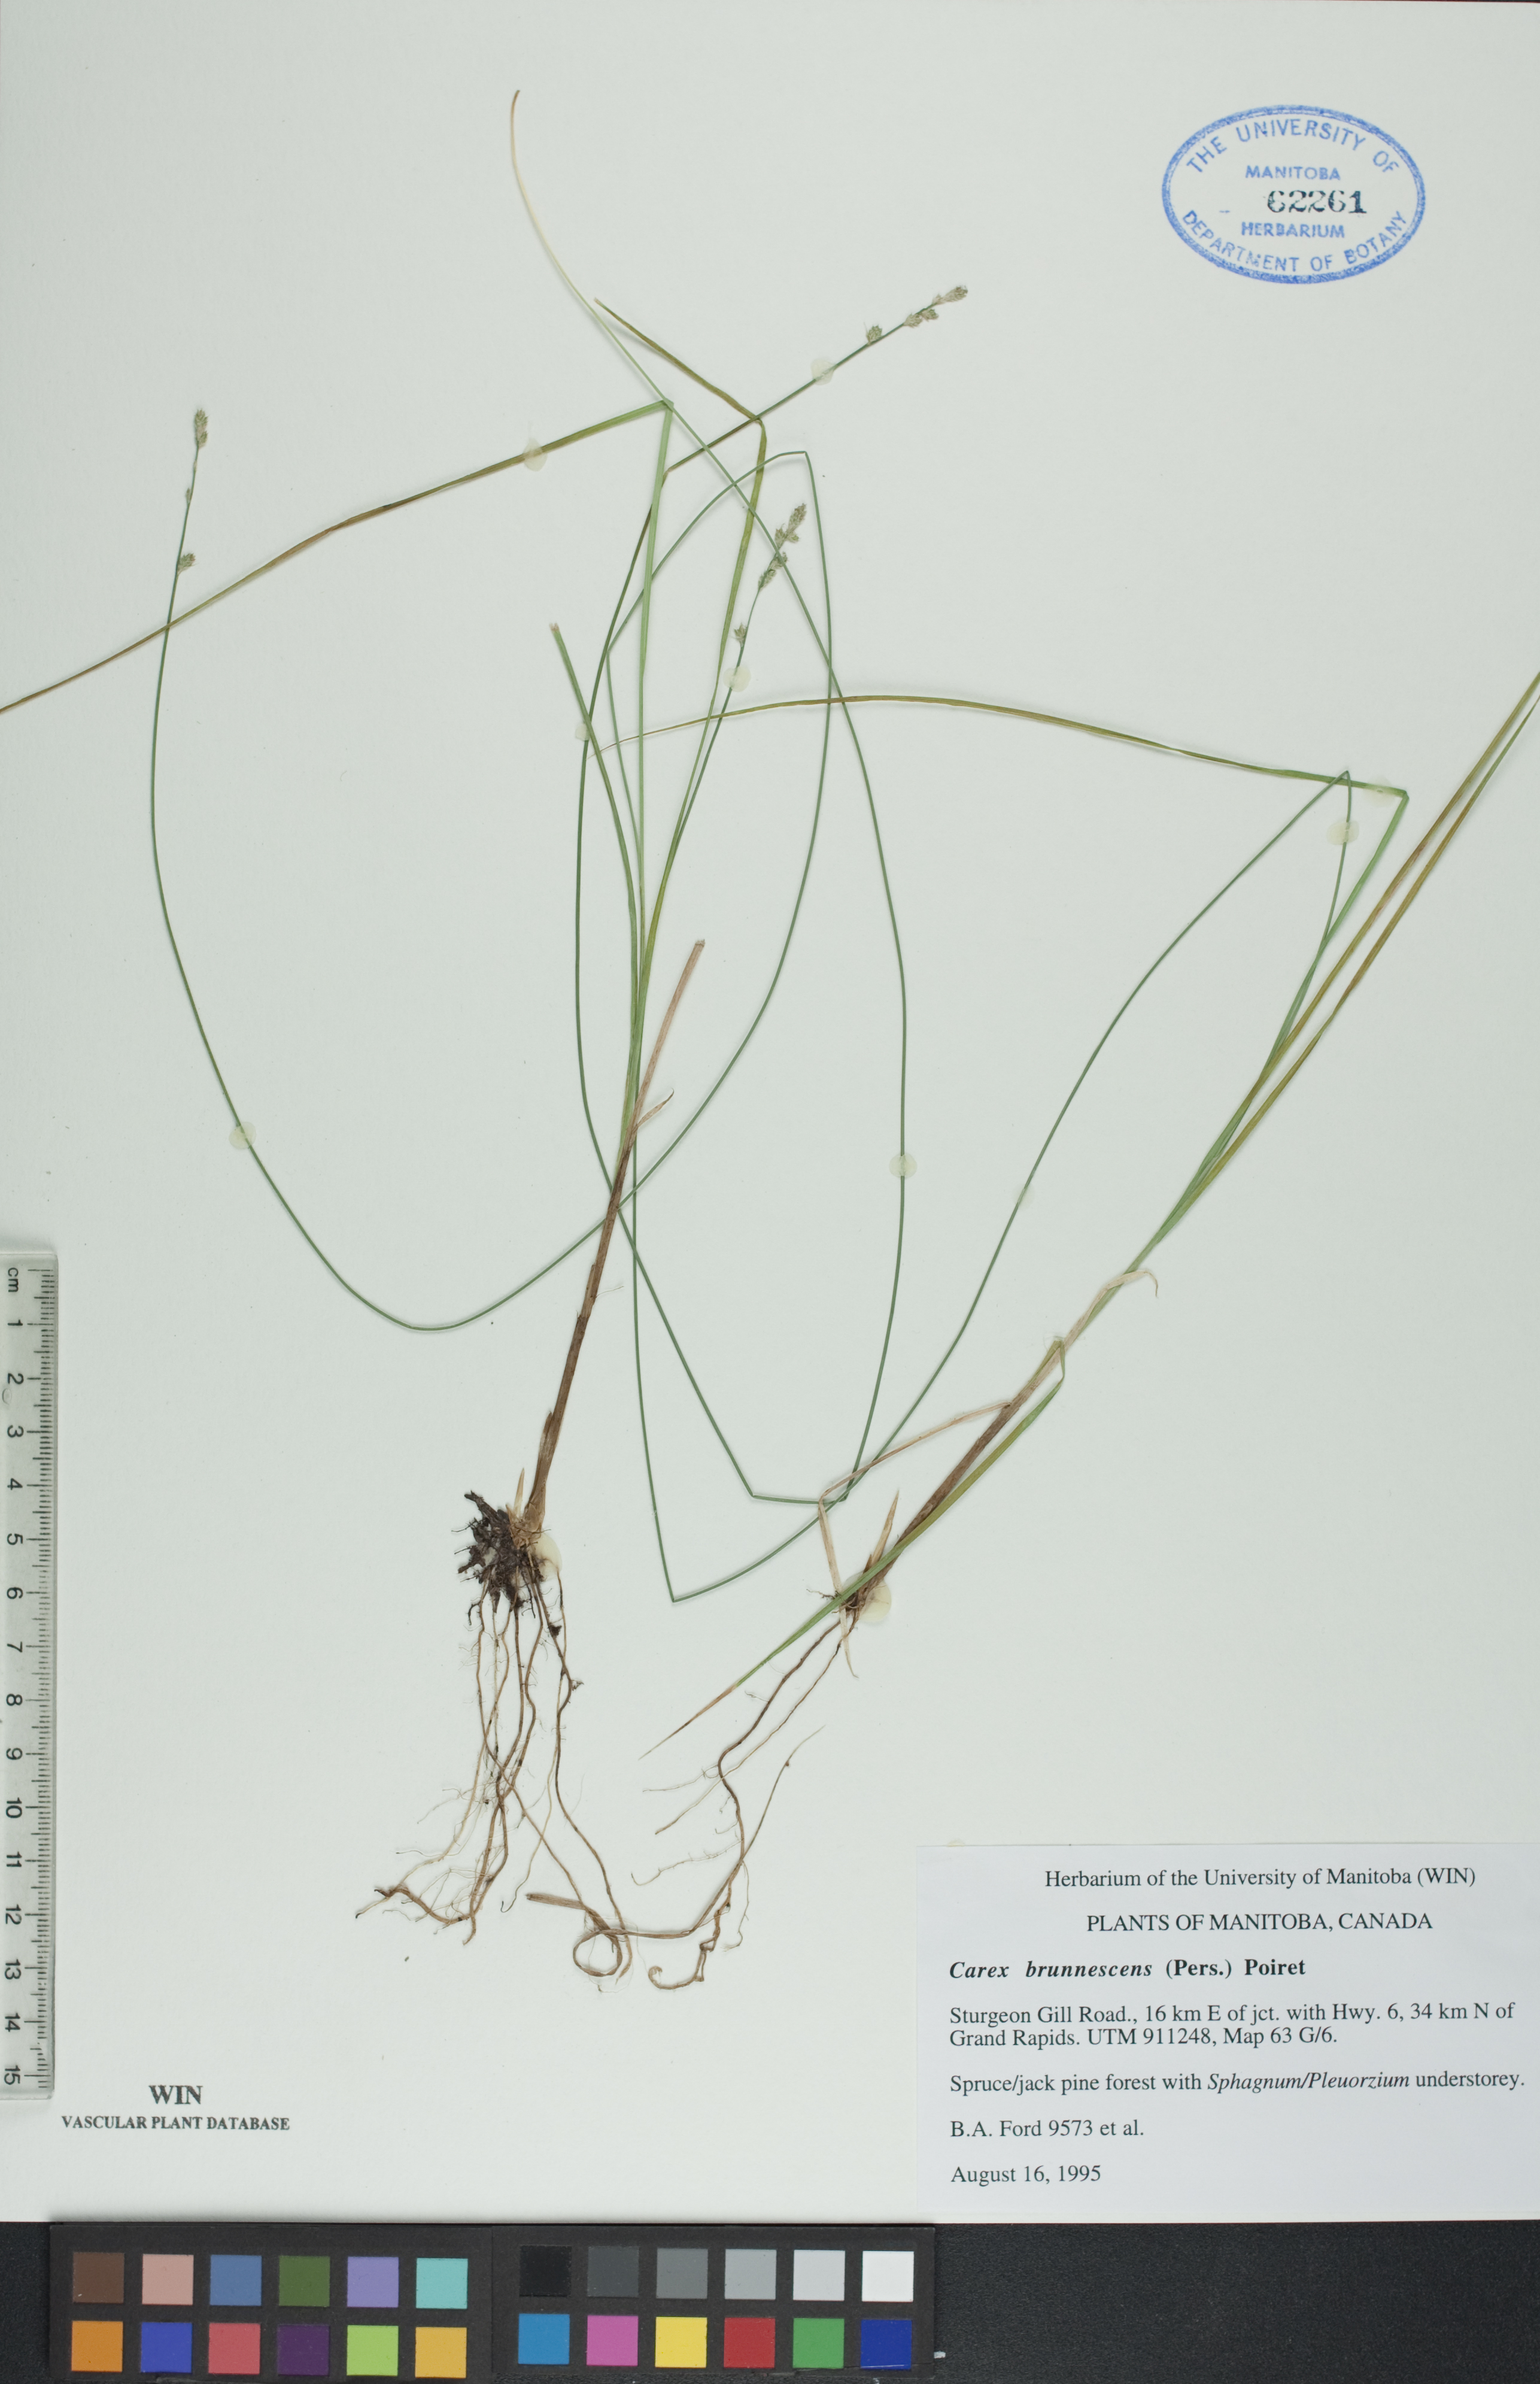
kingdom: Plantae
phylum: Tracheophyta
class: Liliopsida
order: Poales
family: Cyperaceae
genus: Carex
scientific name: Carex brunnescens
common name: Brown sedge
